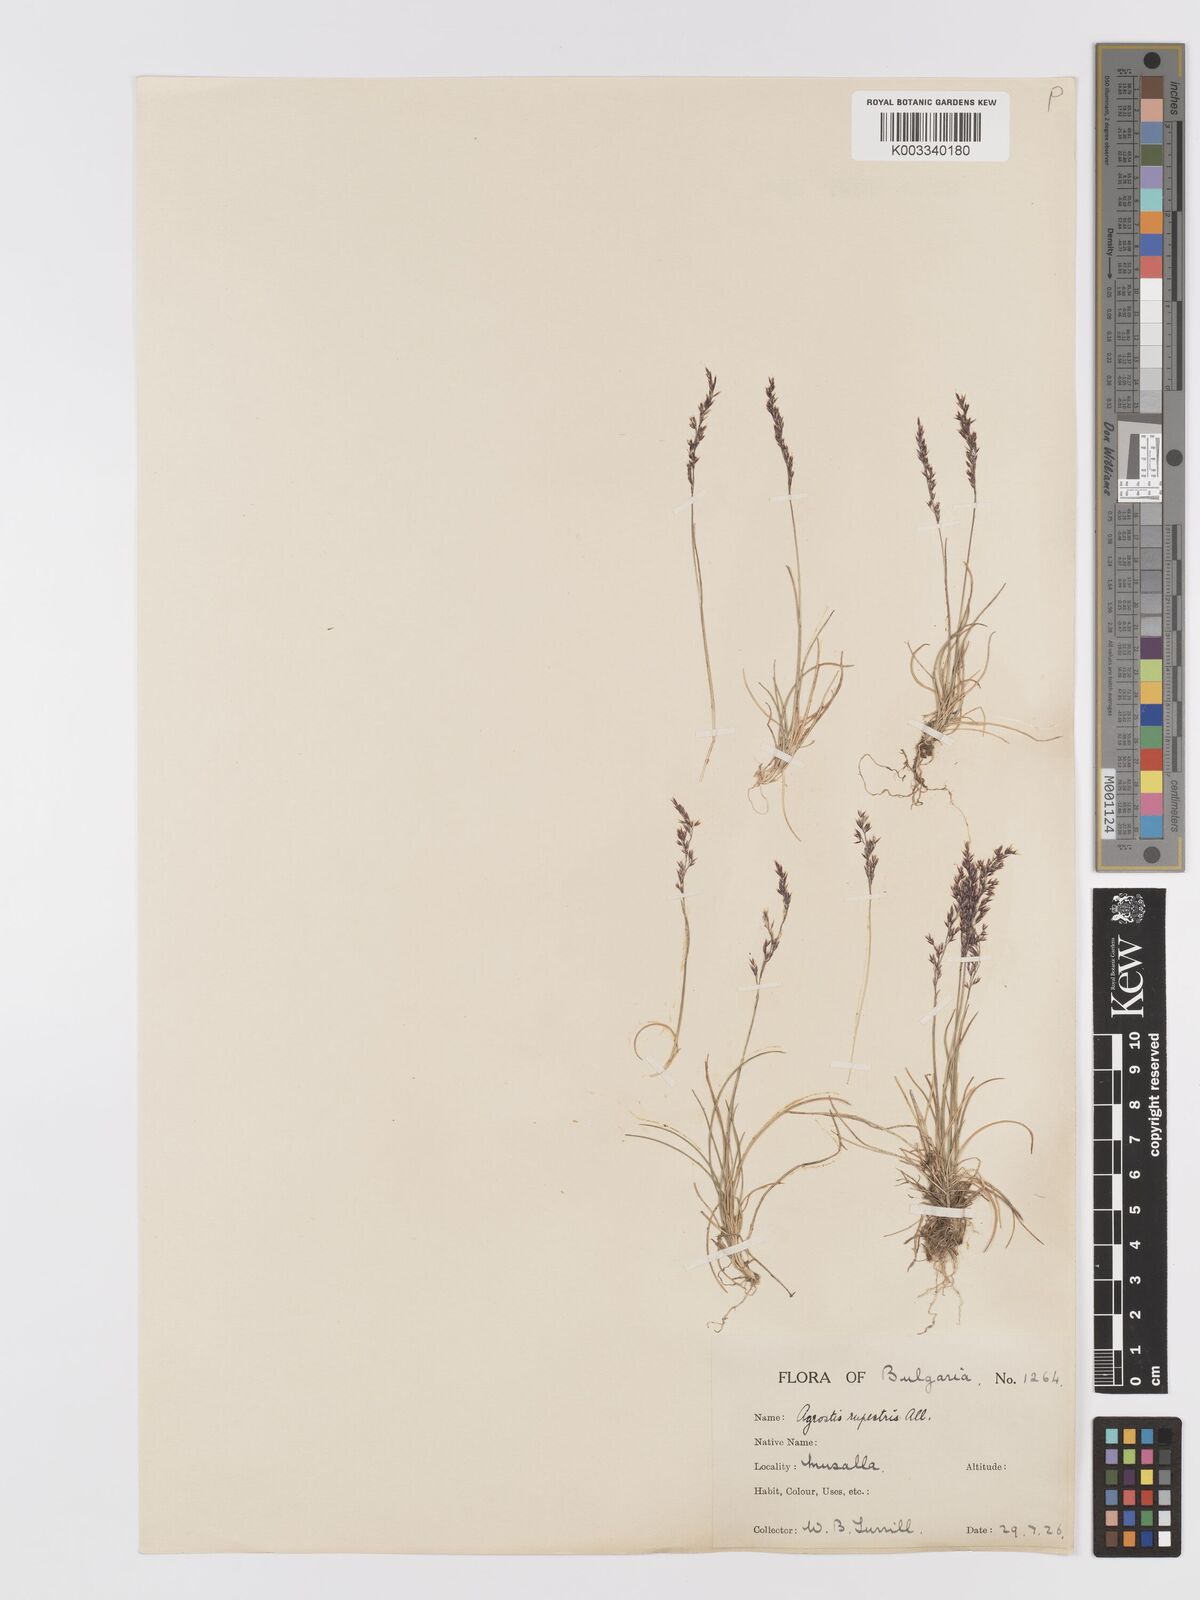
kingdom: Plantae
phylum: Tracheophyta
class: Liliopsida
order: Poales
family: Poaceae
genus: Agrostis
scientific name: Agrostis rupestris
